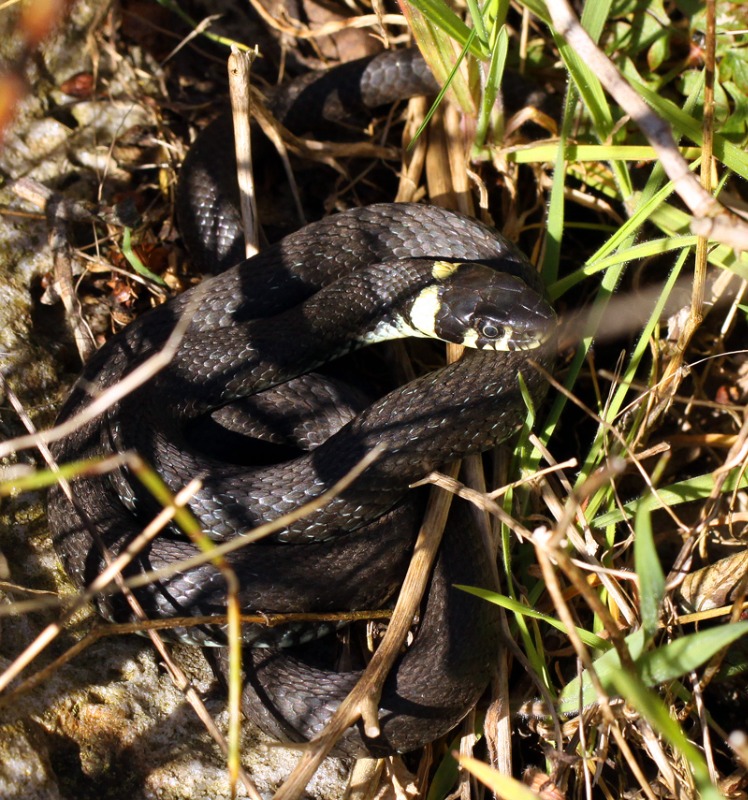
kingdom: Animalia
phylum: Chordata
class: Squamata
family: Colubridae
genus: Natrix
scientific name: Natrix natrix
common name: Snog
